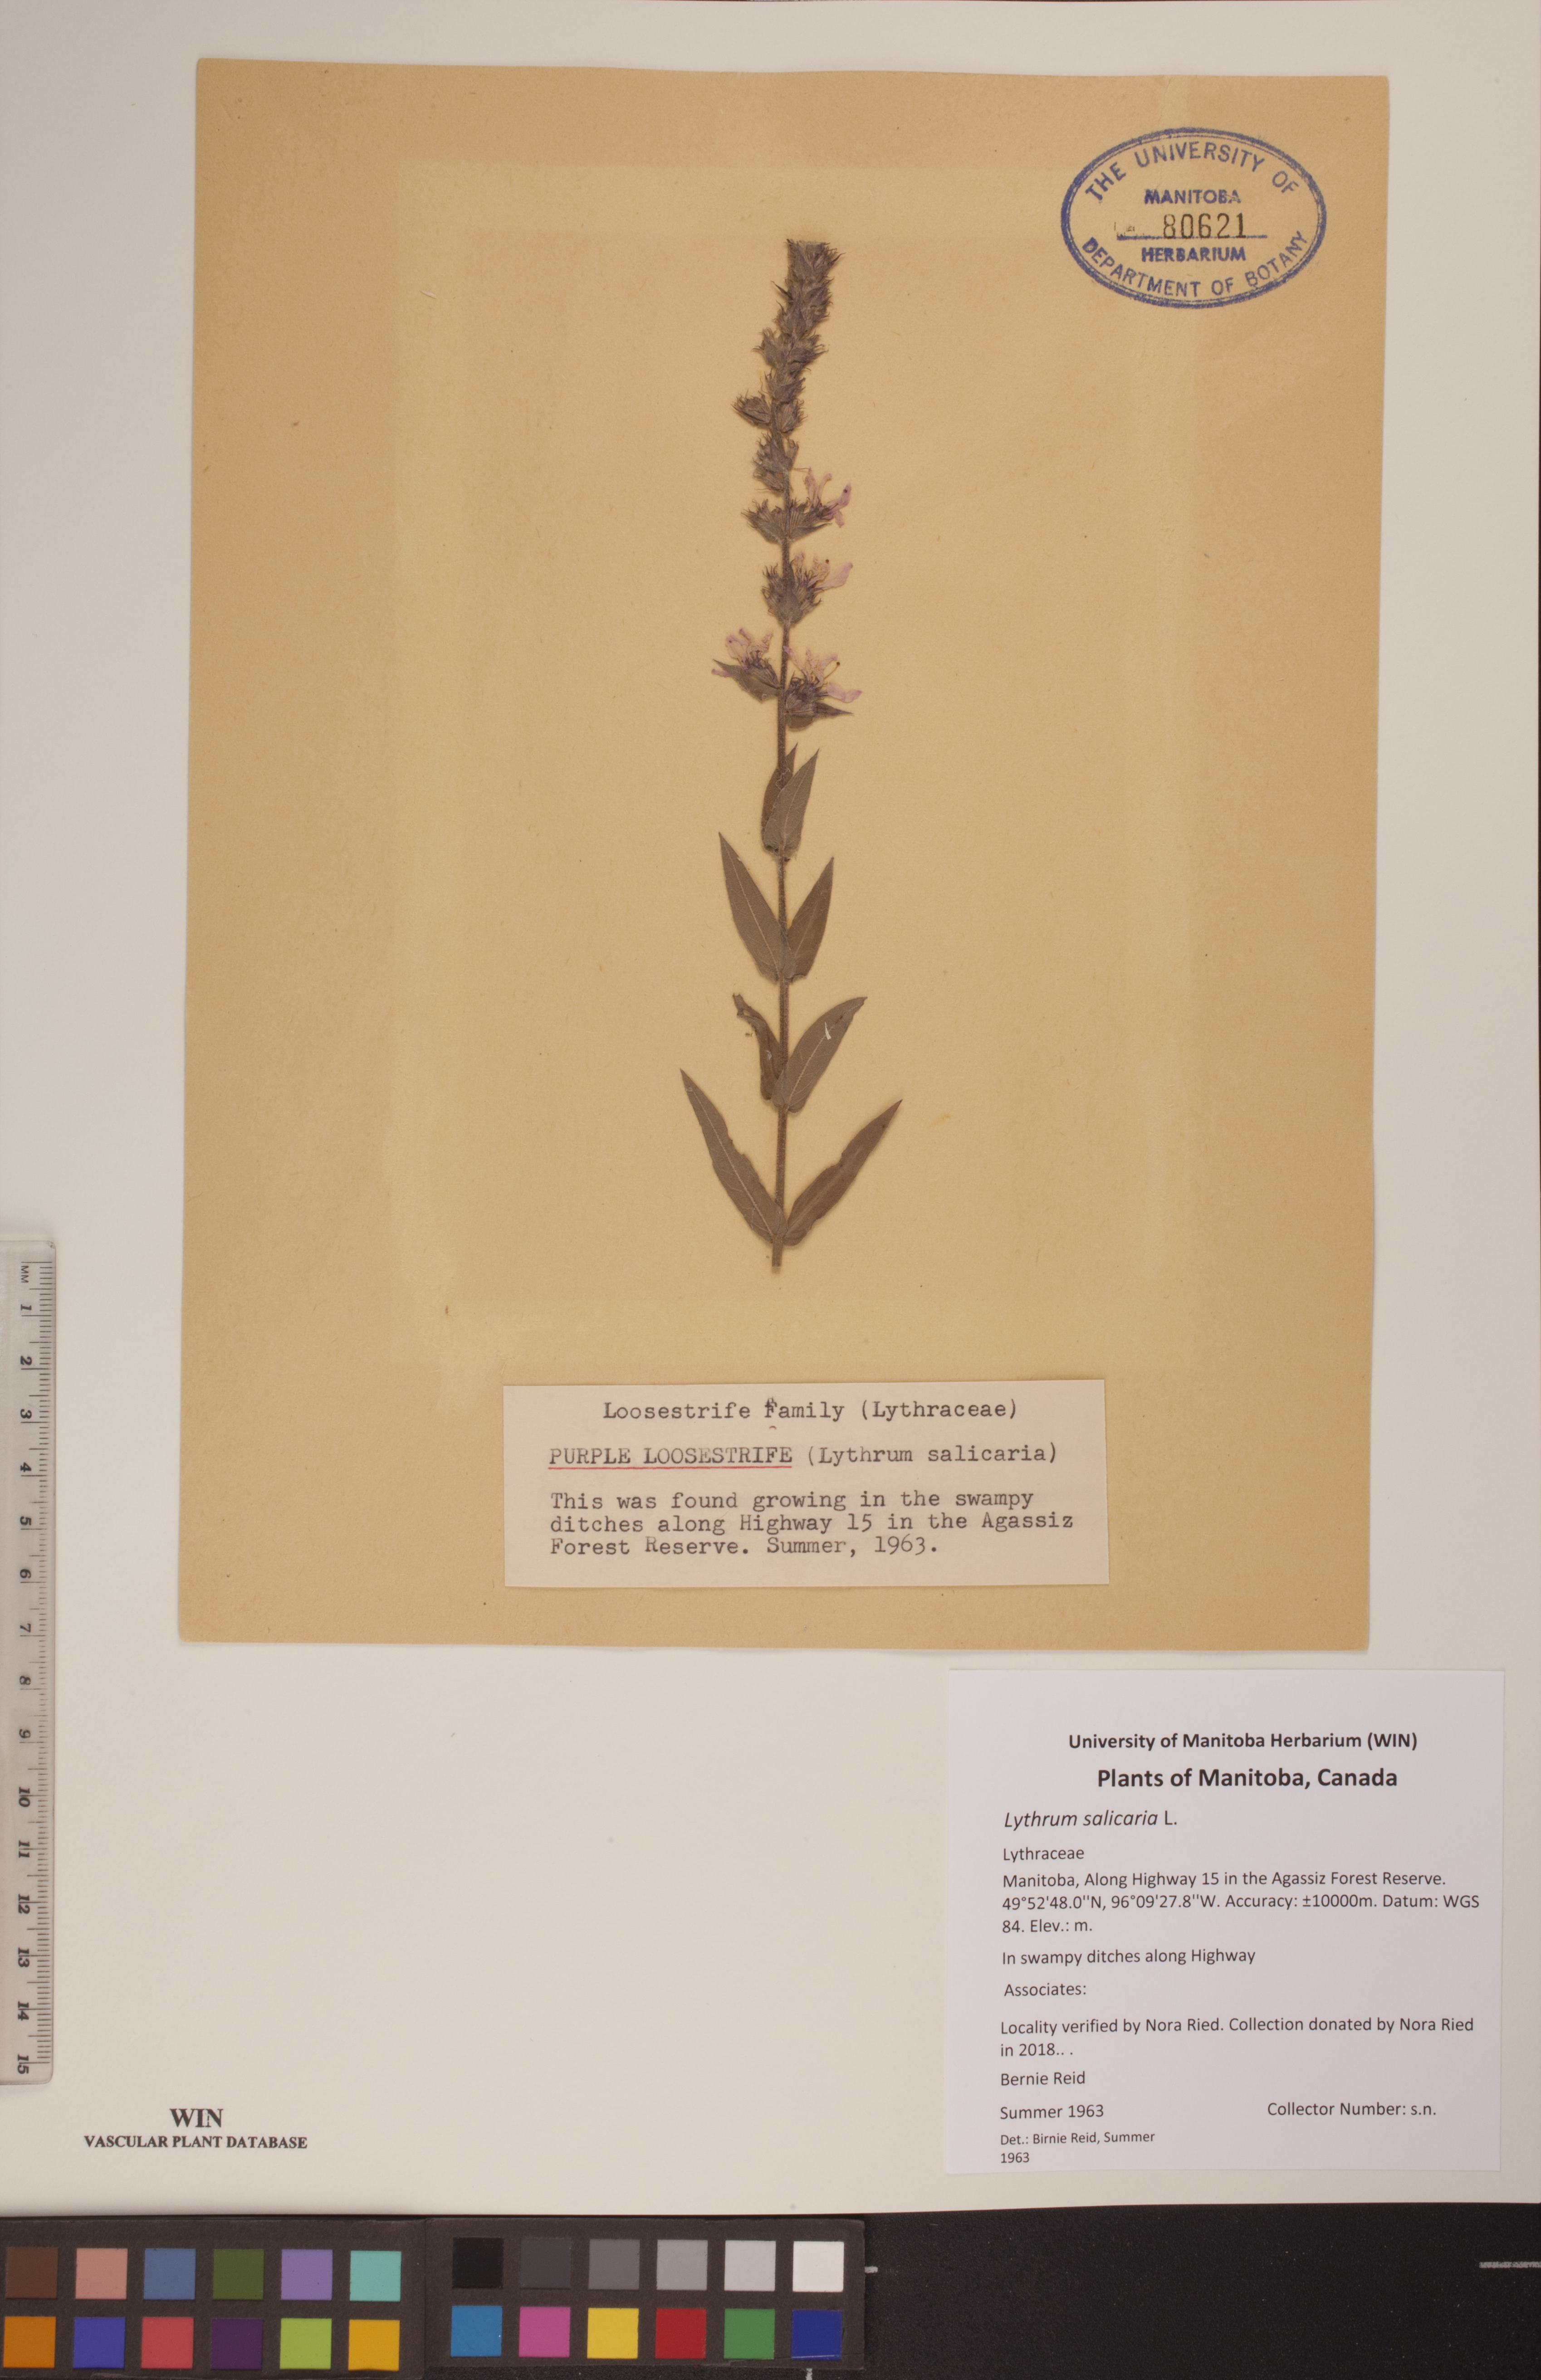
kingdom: Plantae
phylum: Tracheophyta
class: Magnoliopsida
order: Myrtales
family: Lythraceae
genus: Lythrum
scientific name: Lythrum salicaria
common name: Purple loosestrife
